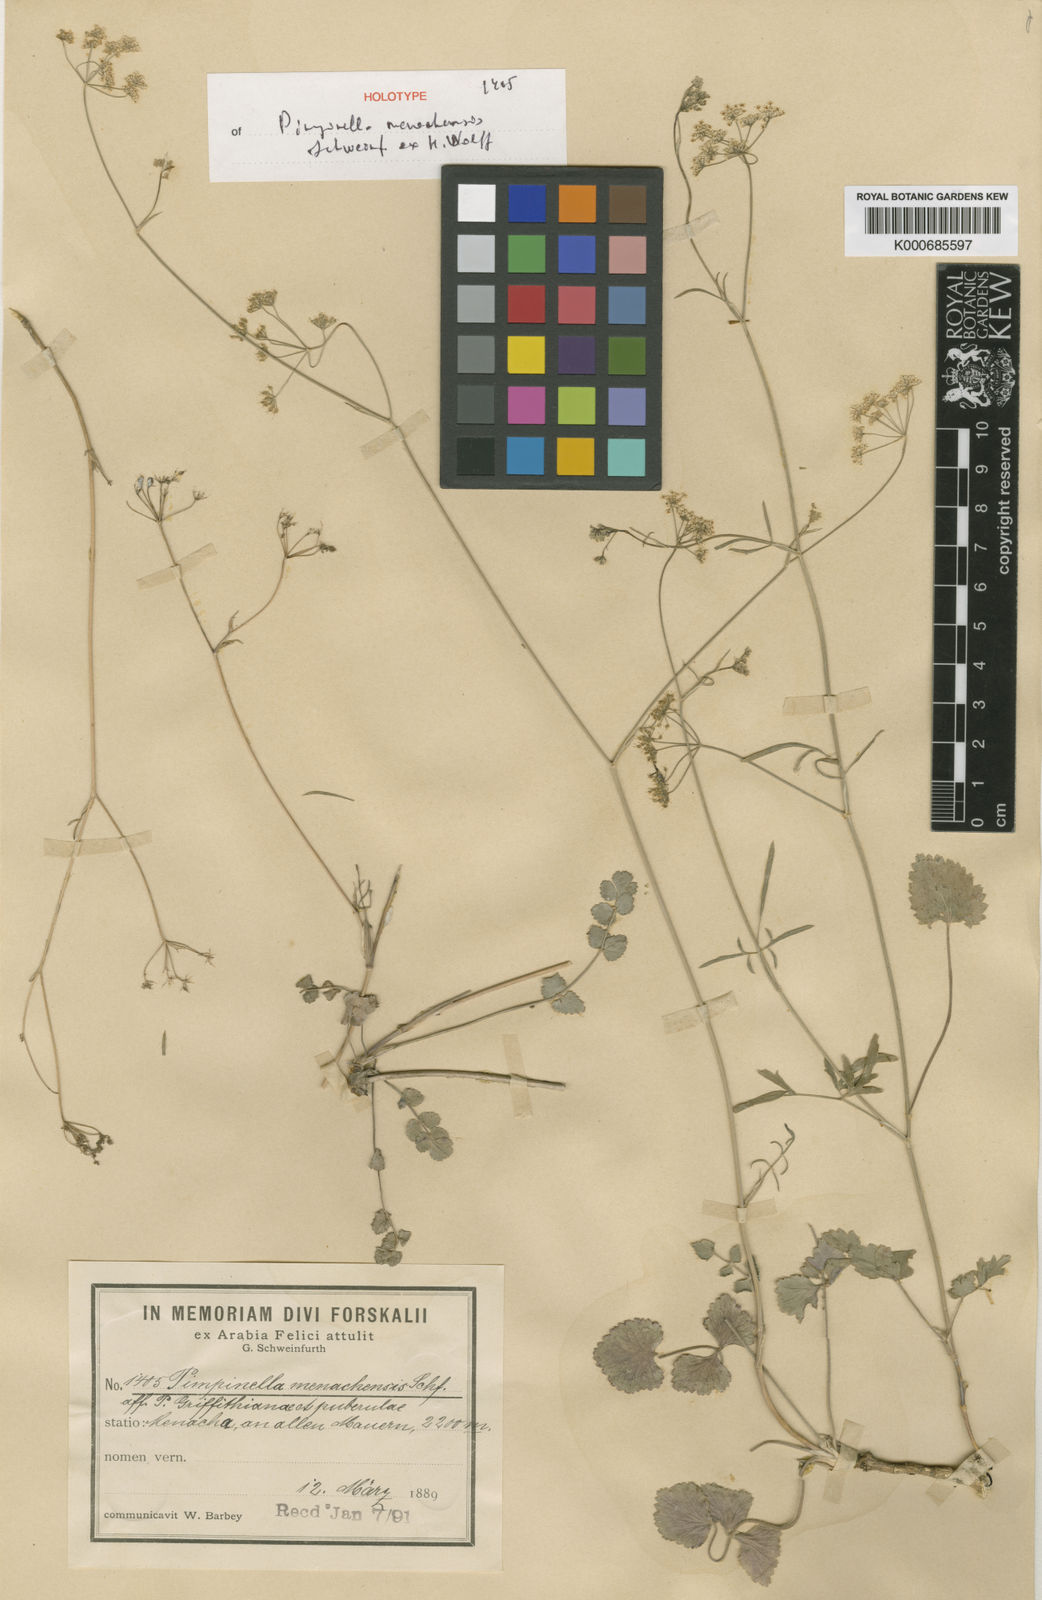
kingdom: Plantae
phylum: Tracheophyta
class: Magnoliopsida
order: Apiales
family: Apiaceae
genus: Pimpinella
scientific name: Pimpinella menachensis
